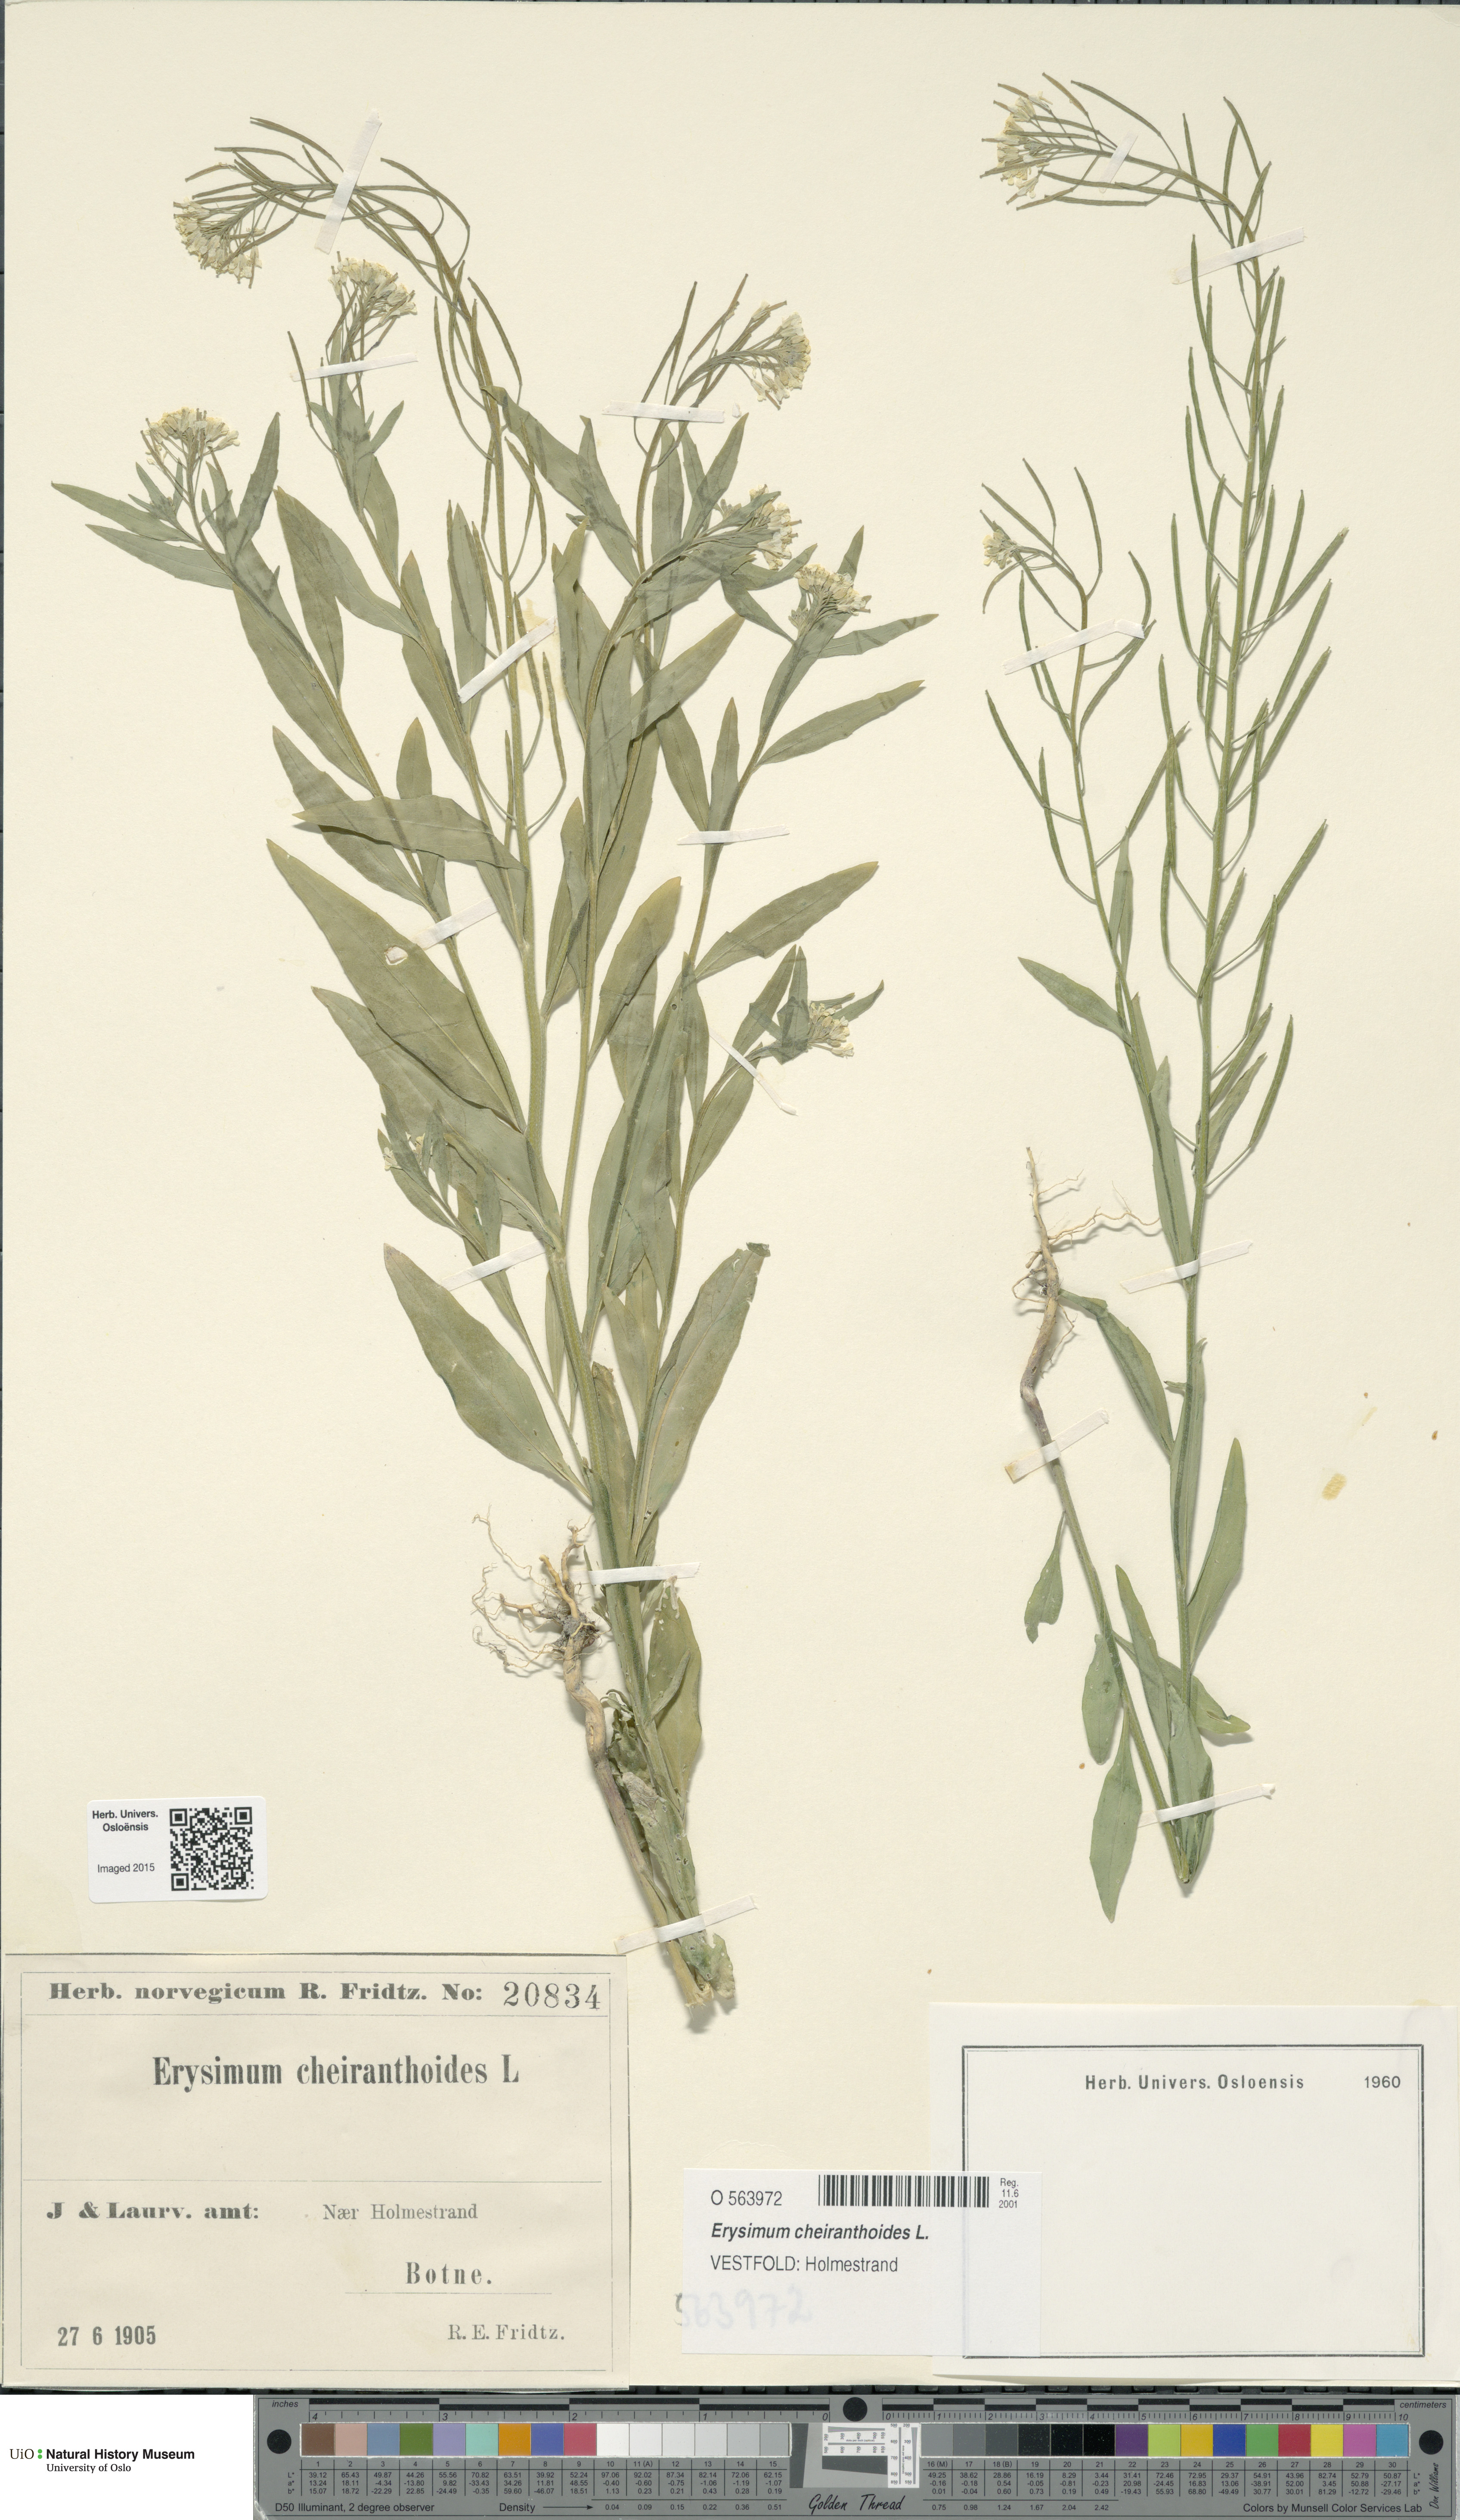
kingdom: Plantae
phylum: Tracheophyta
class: Magnoliopsida
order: Brassicales
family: Brassicaceae
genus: Erysimum
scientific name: Erysimum cheiranthoides
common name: Treacle mustard
